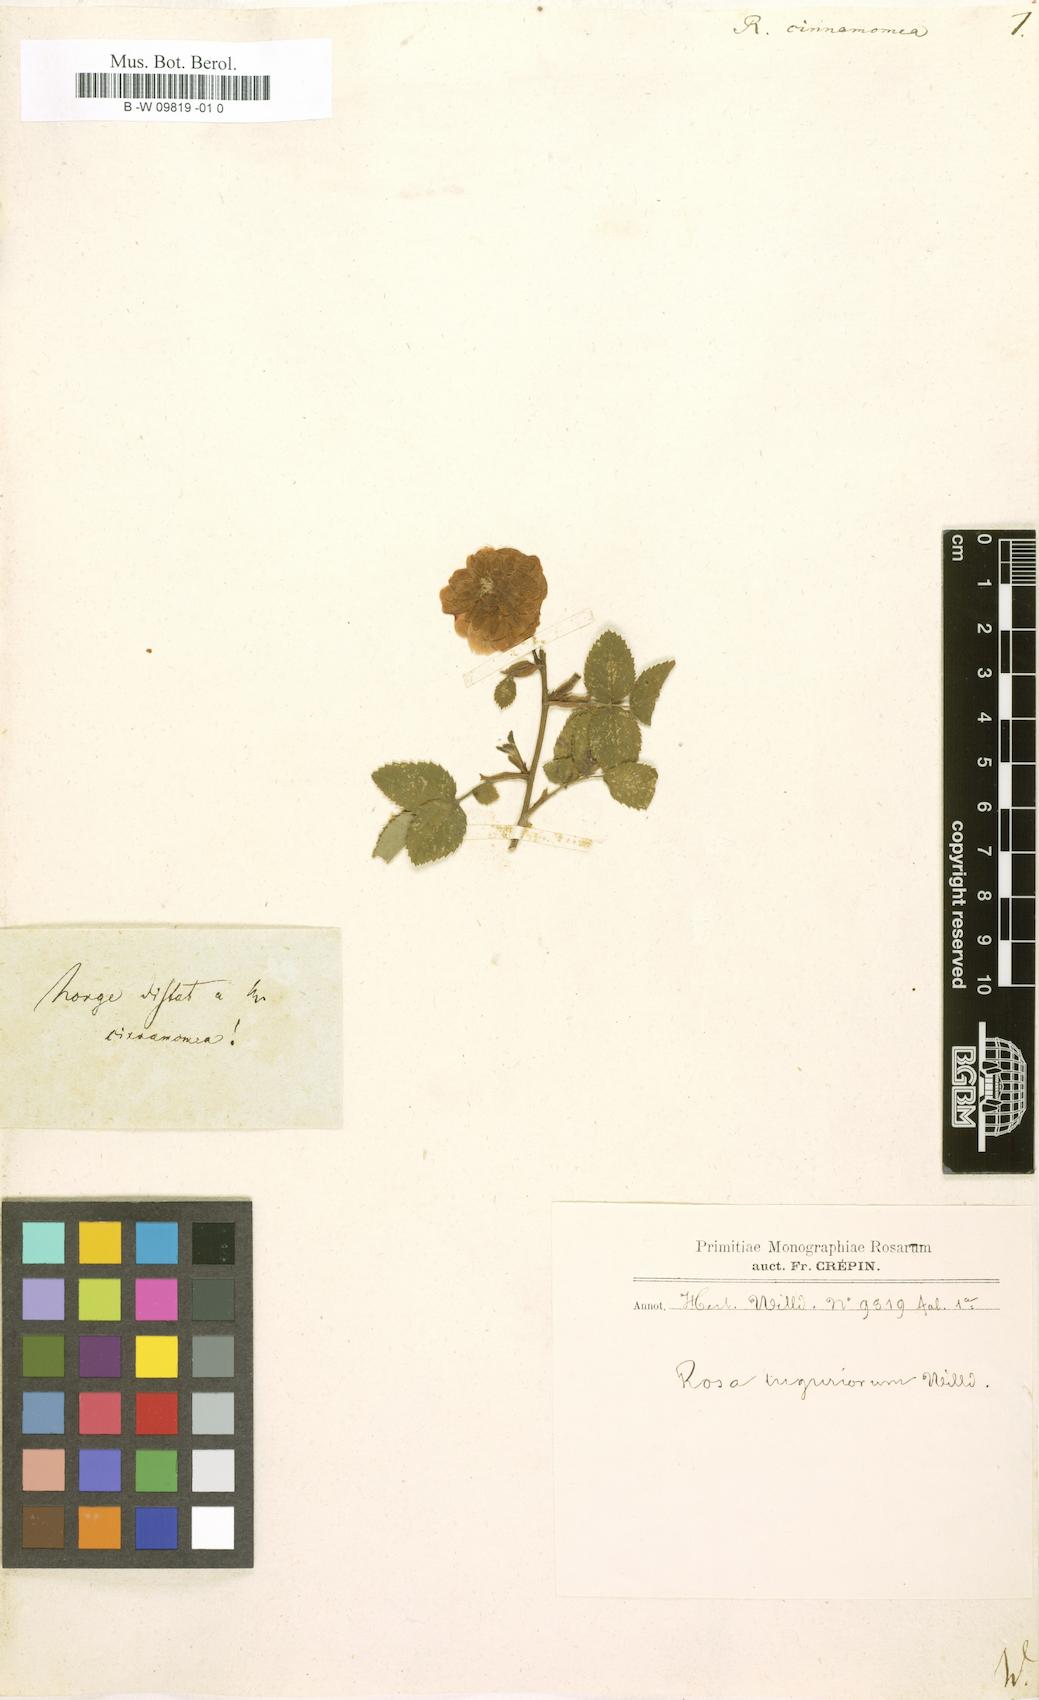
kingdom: Plantae
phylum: Tracheophyta
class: Magnoliopsida
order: Rosales
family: Rosaceae
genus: Rosa
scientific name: Rosa pendulina
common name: Alpine rose
